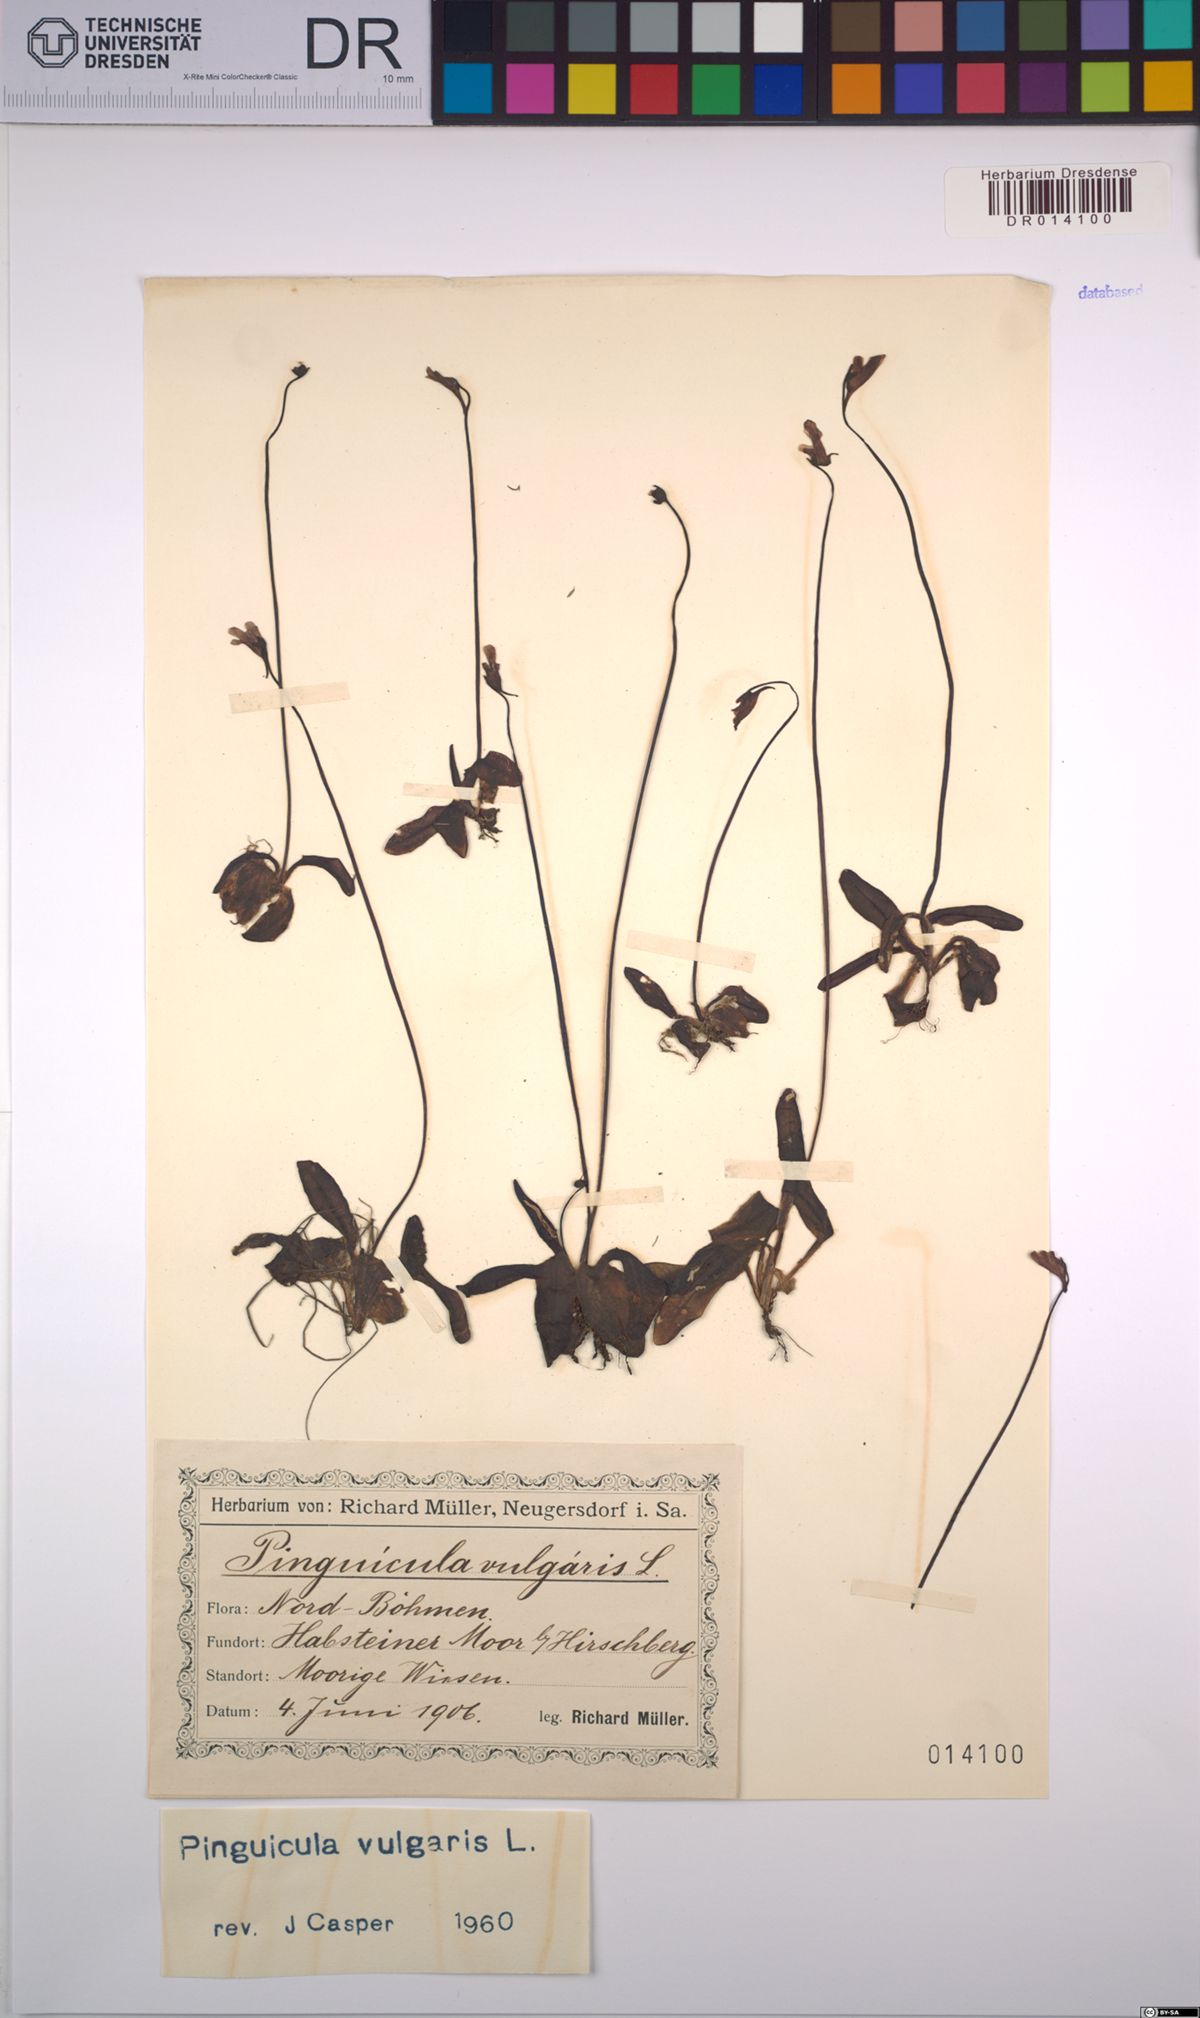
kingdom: Plantae
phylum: Tracheophyta
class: Magnoliopsida
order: Lamiales
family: Lentibulariaceae
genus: Pinguicula
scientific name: Pinguicula vulgaris
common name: Common butterwort
